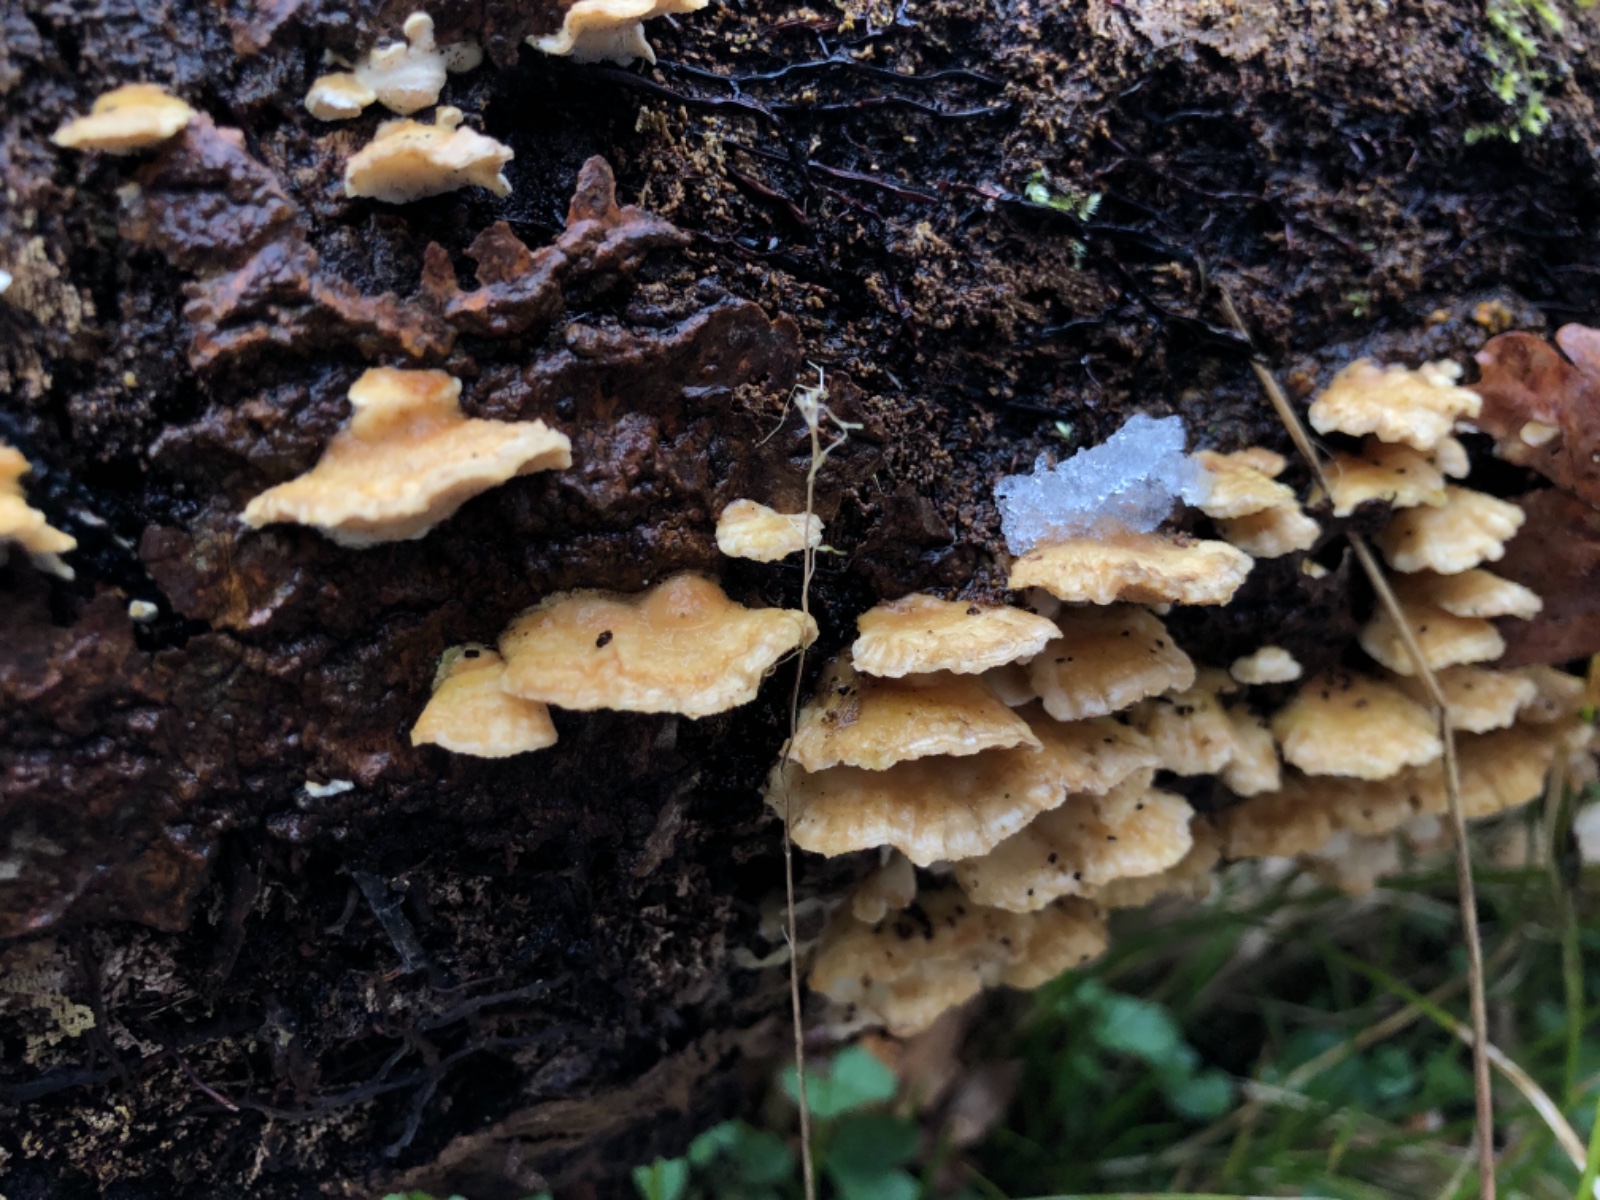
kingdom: Fungi
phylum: Basidiomycota
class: Agaricomycetes
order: Polyporales
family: Polyporaceae
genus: Trametes
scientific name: Trametes ochracea
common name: bæltet læderporesvamp
